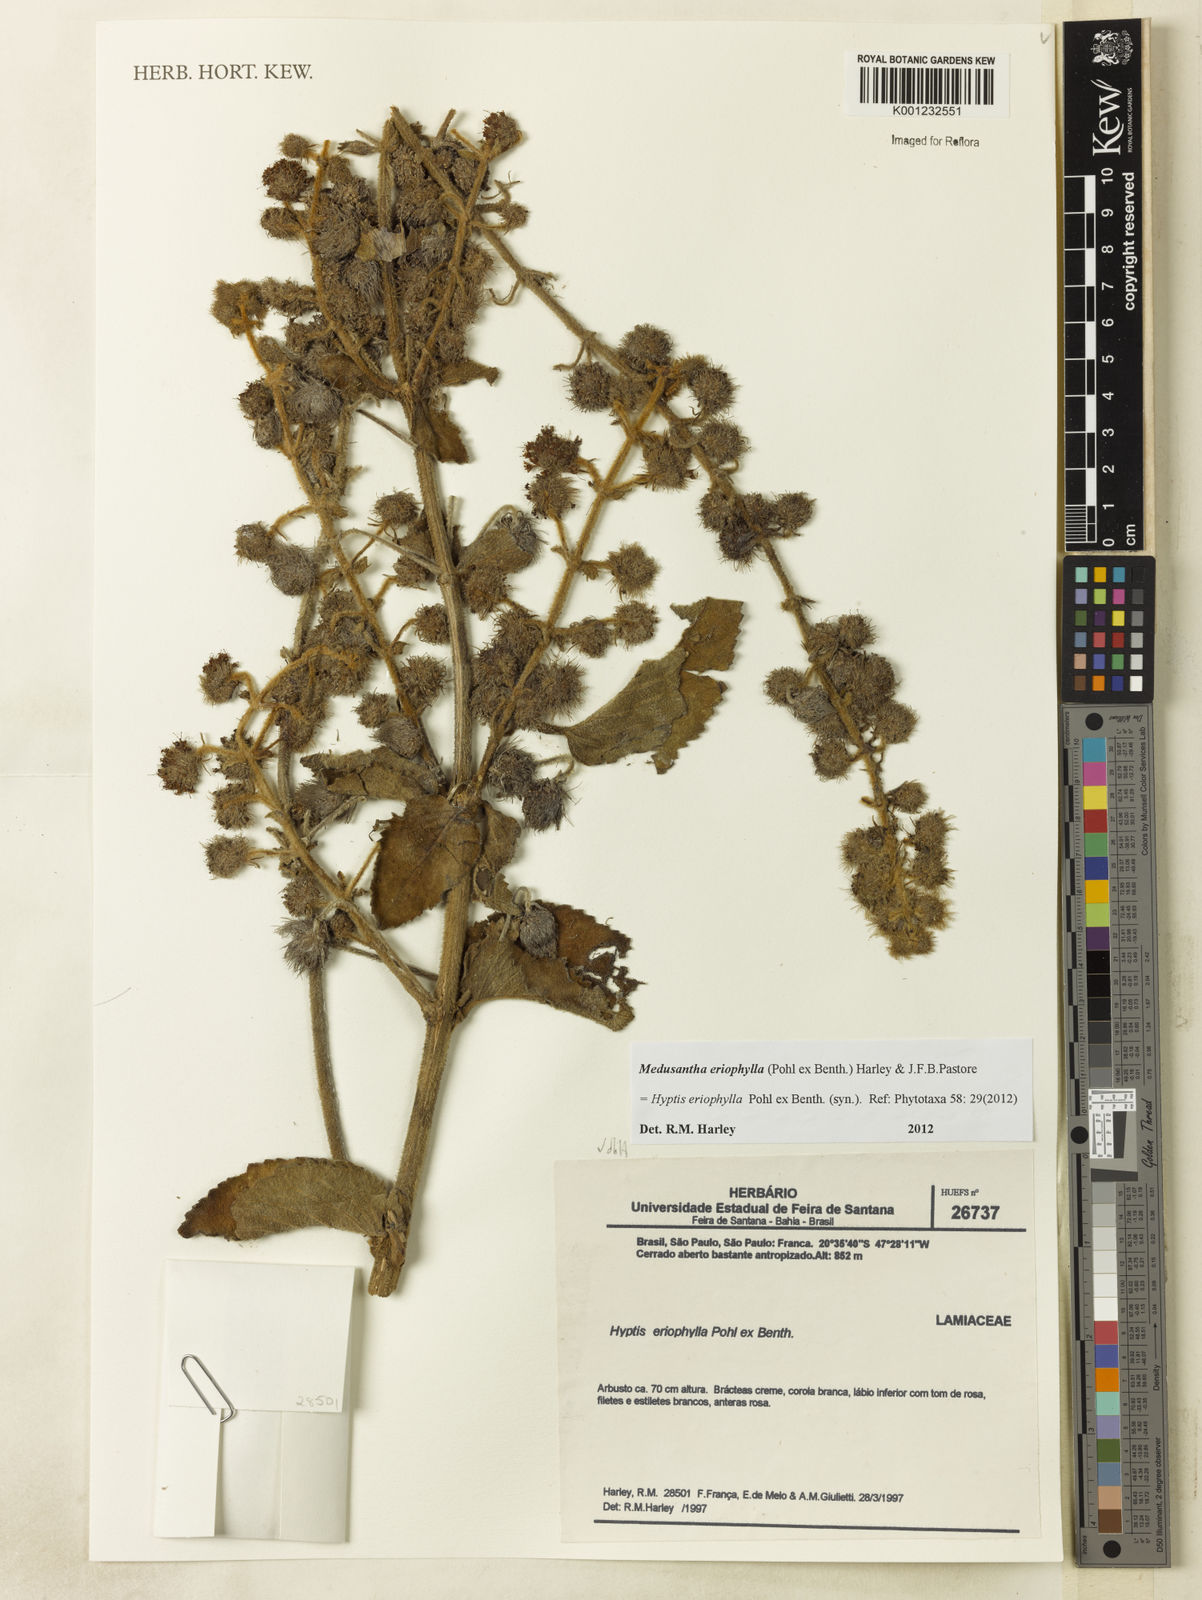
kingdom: Plantae
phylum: Tracheophyta
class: Magnoliopsida
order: Lamiales
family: Lamiaceae
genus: Medusantha
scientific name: Medusantha eriophylla
